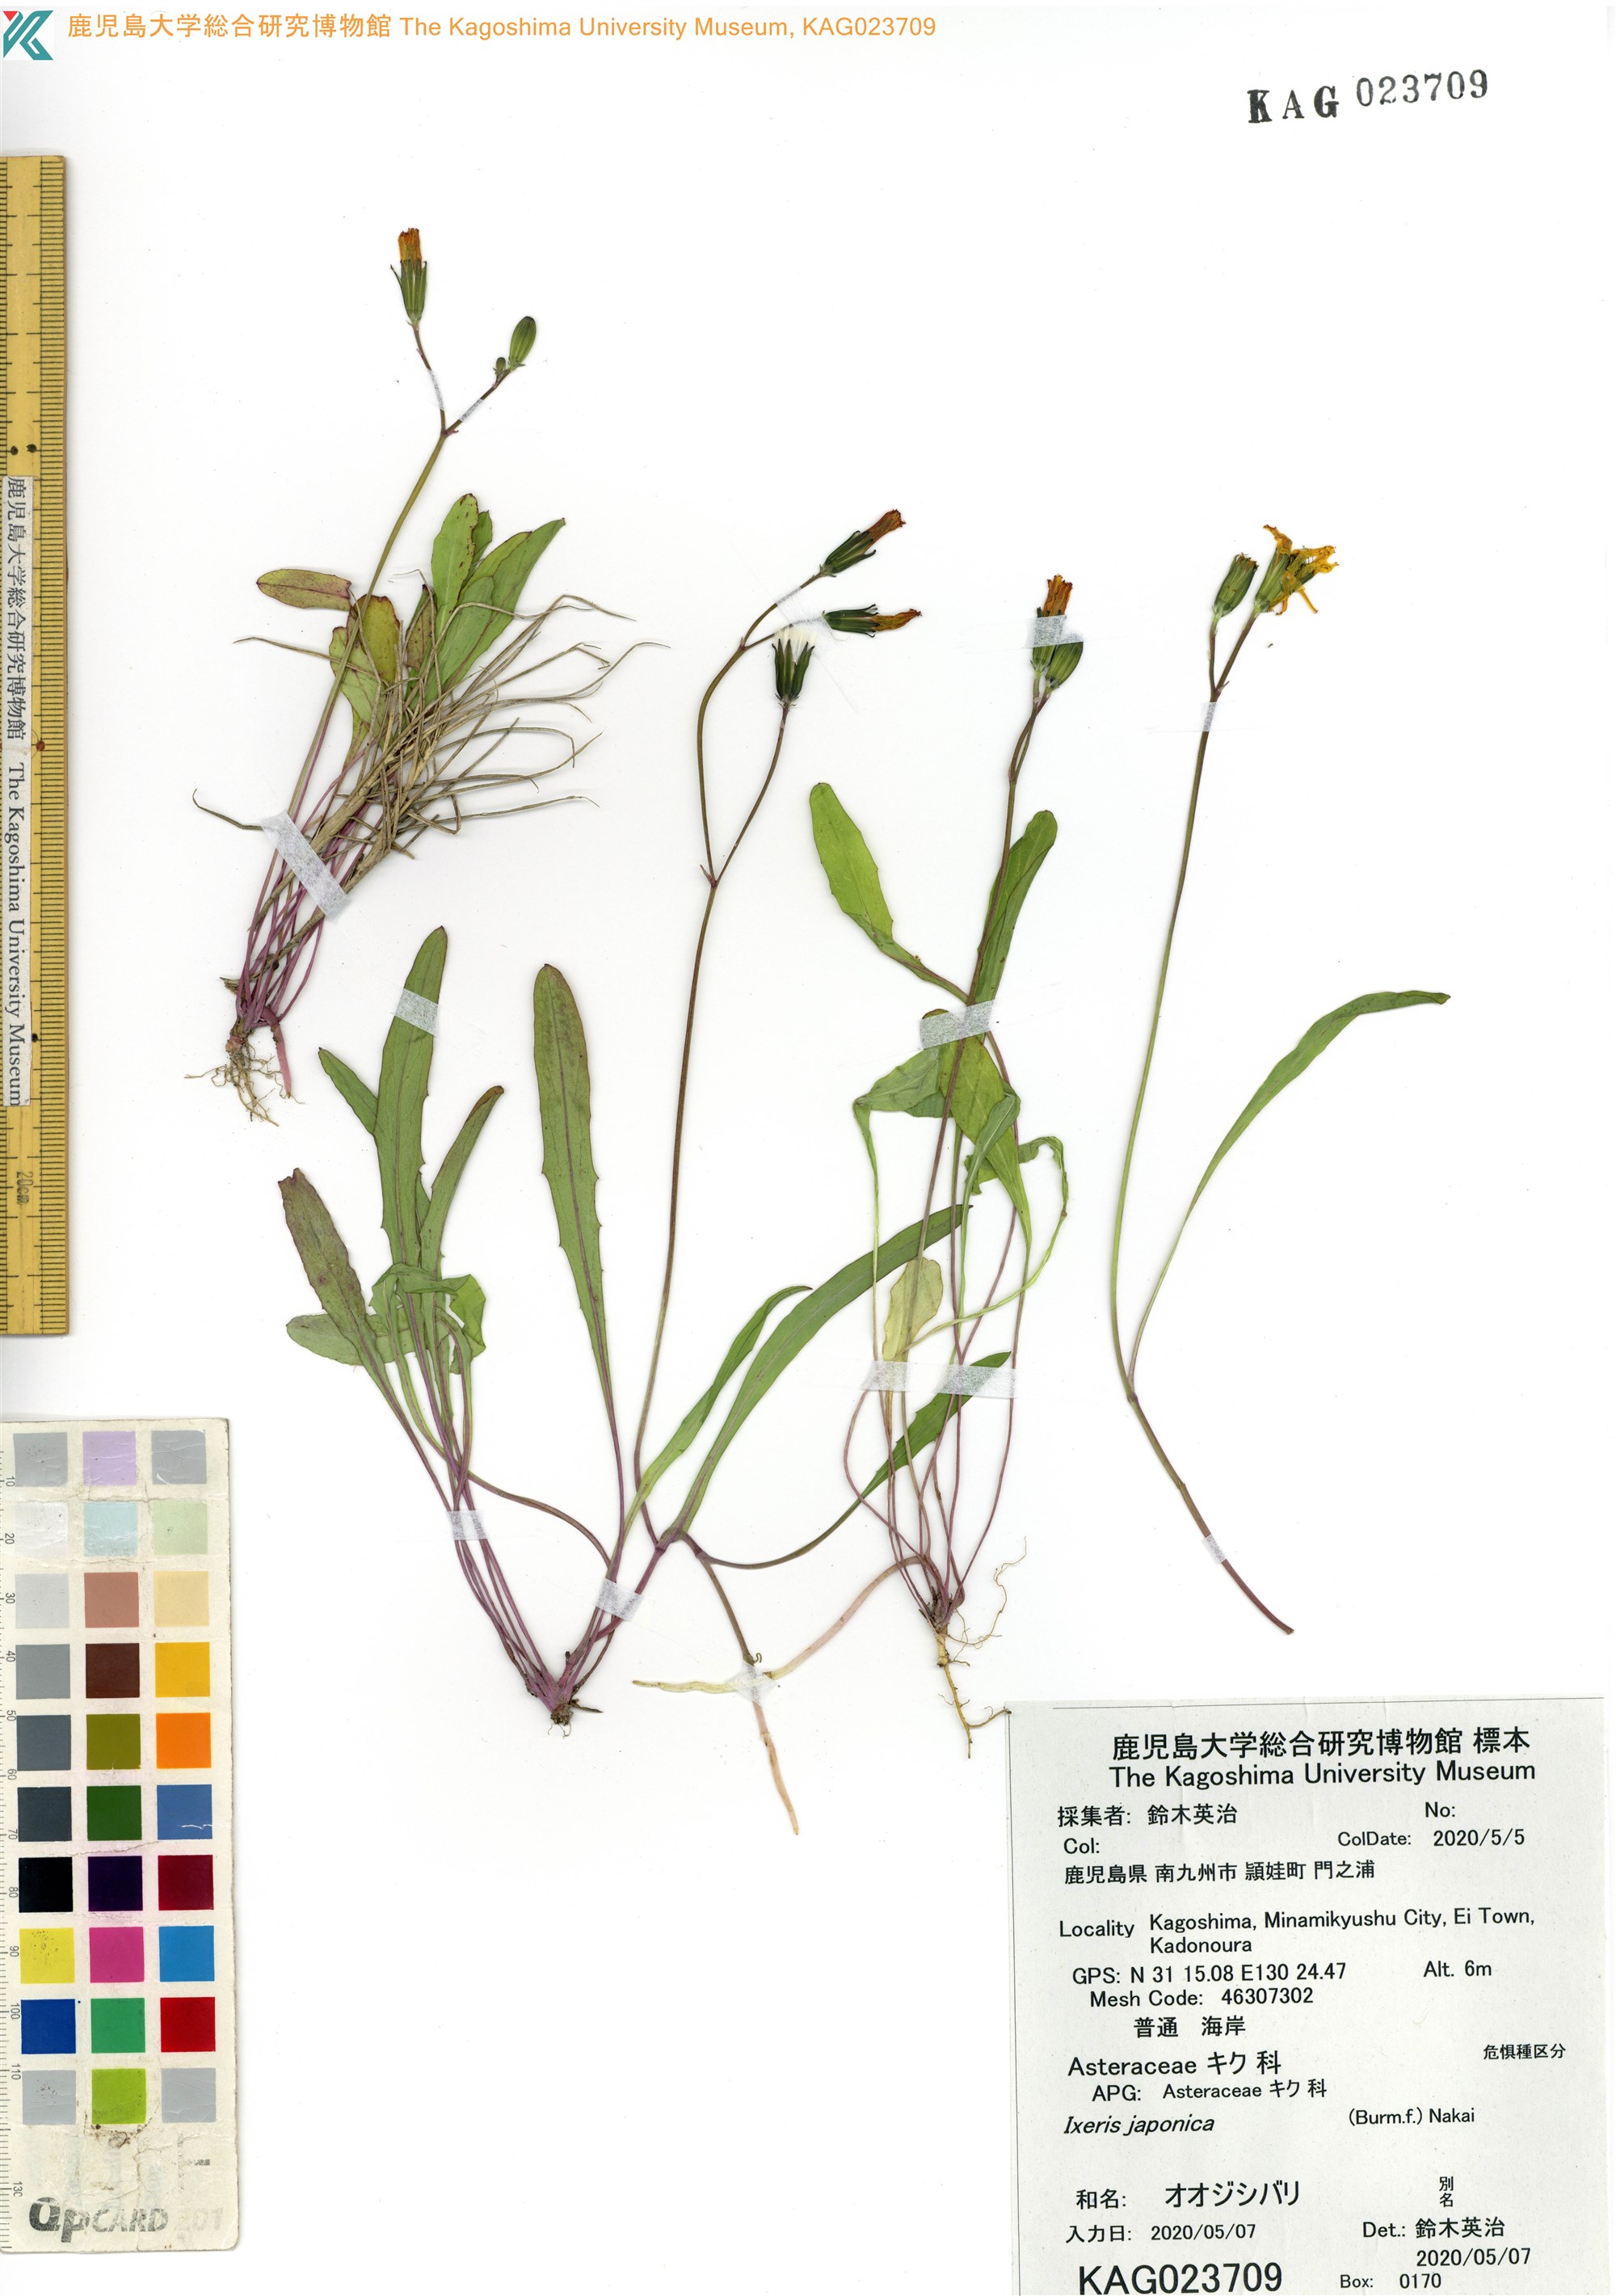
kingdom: Plantae
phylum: Tracheophyta
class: Magnoliopsida
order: Asterales
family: Asteraceae
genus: Ixeris
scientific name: Ixeris japonica
